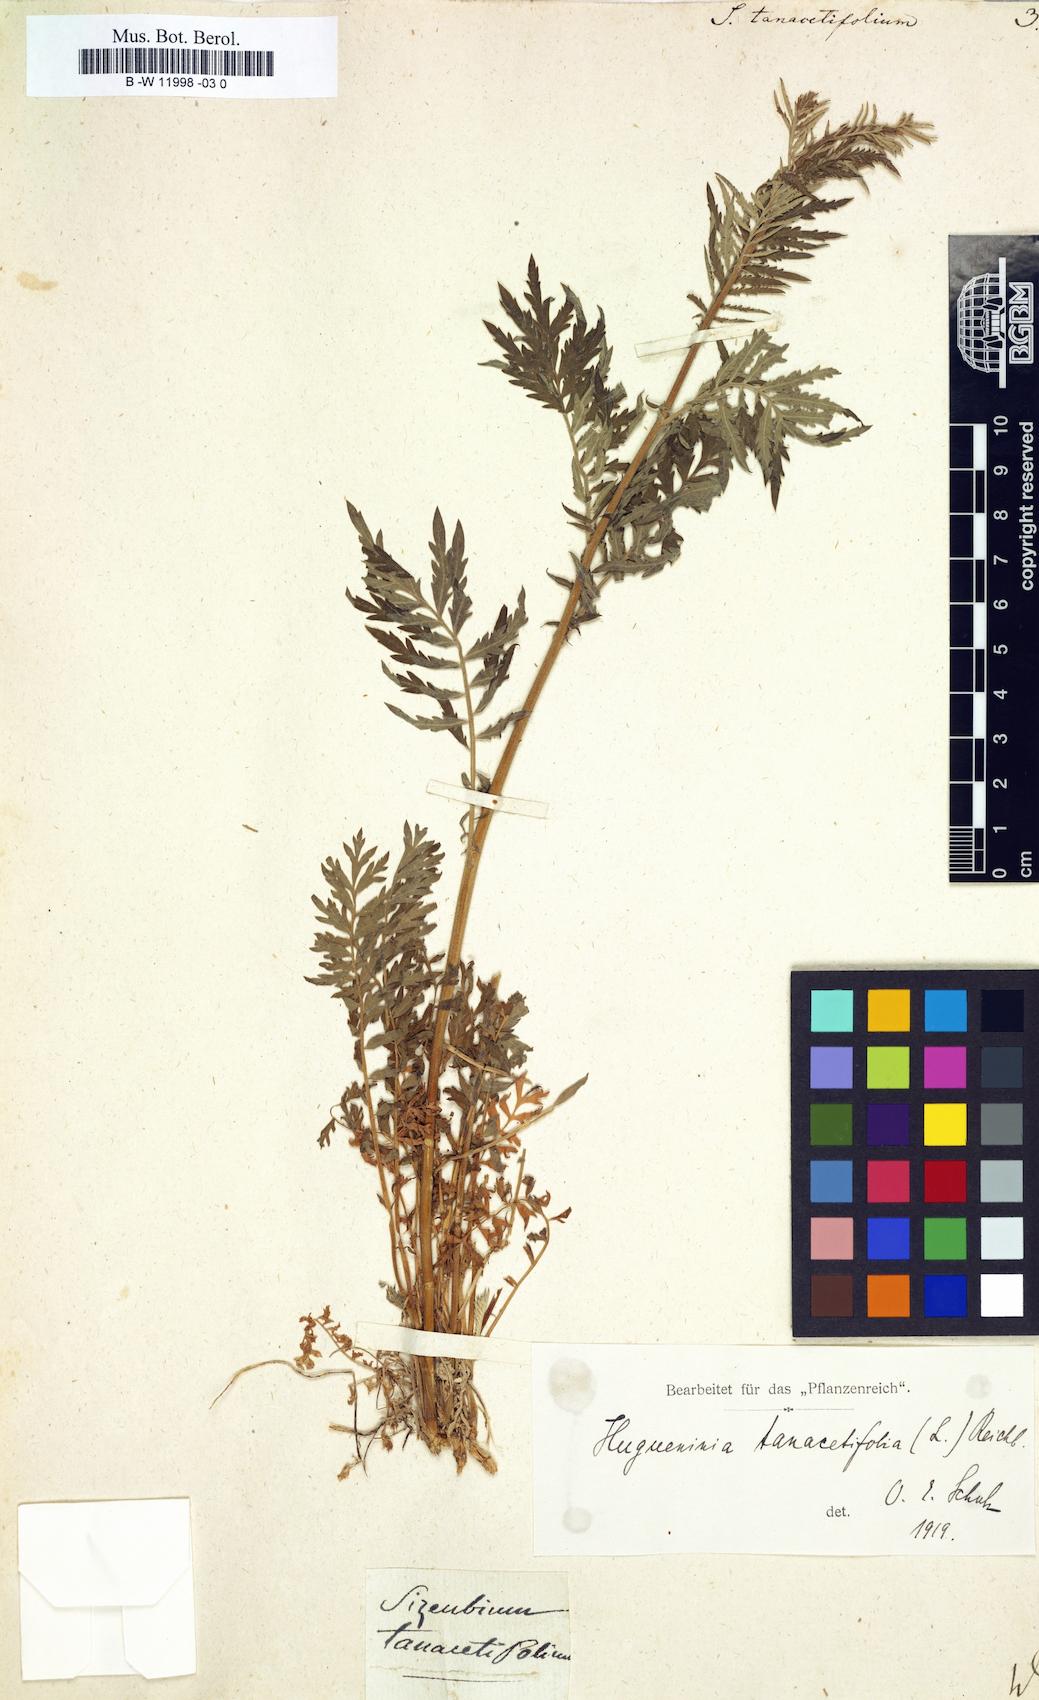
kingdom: Plantae
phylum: Tracheophyta
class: Magnoliopsida
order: Brassicales
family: Brassicaceae
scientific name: Brassicaceae
